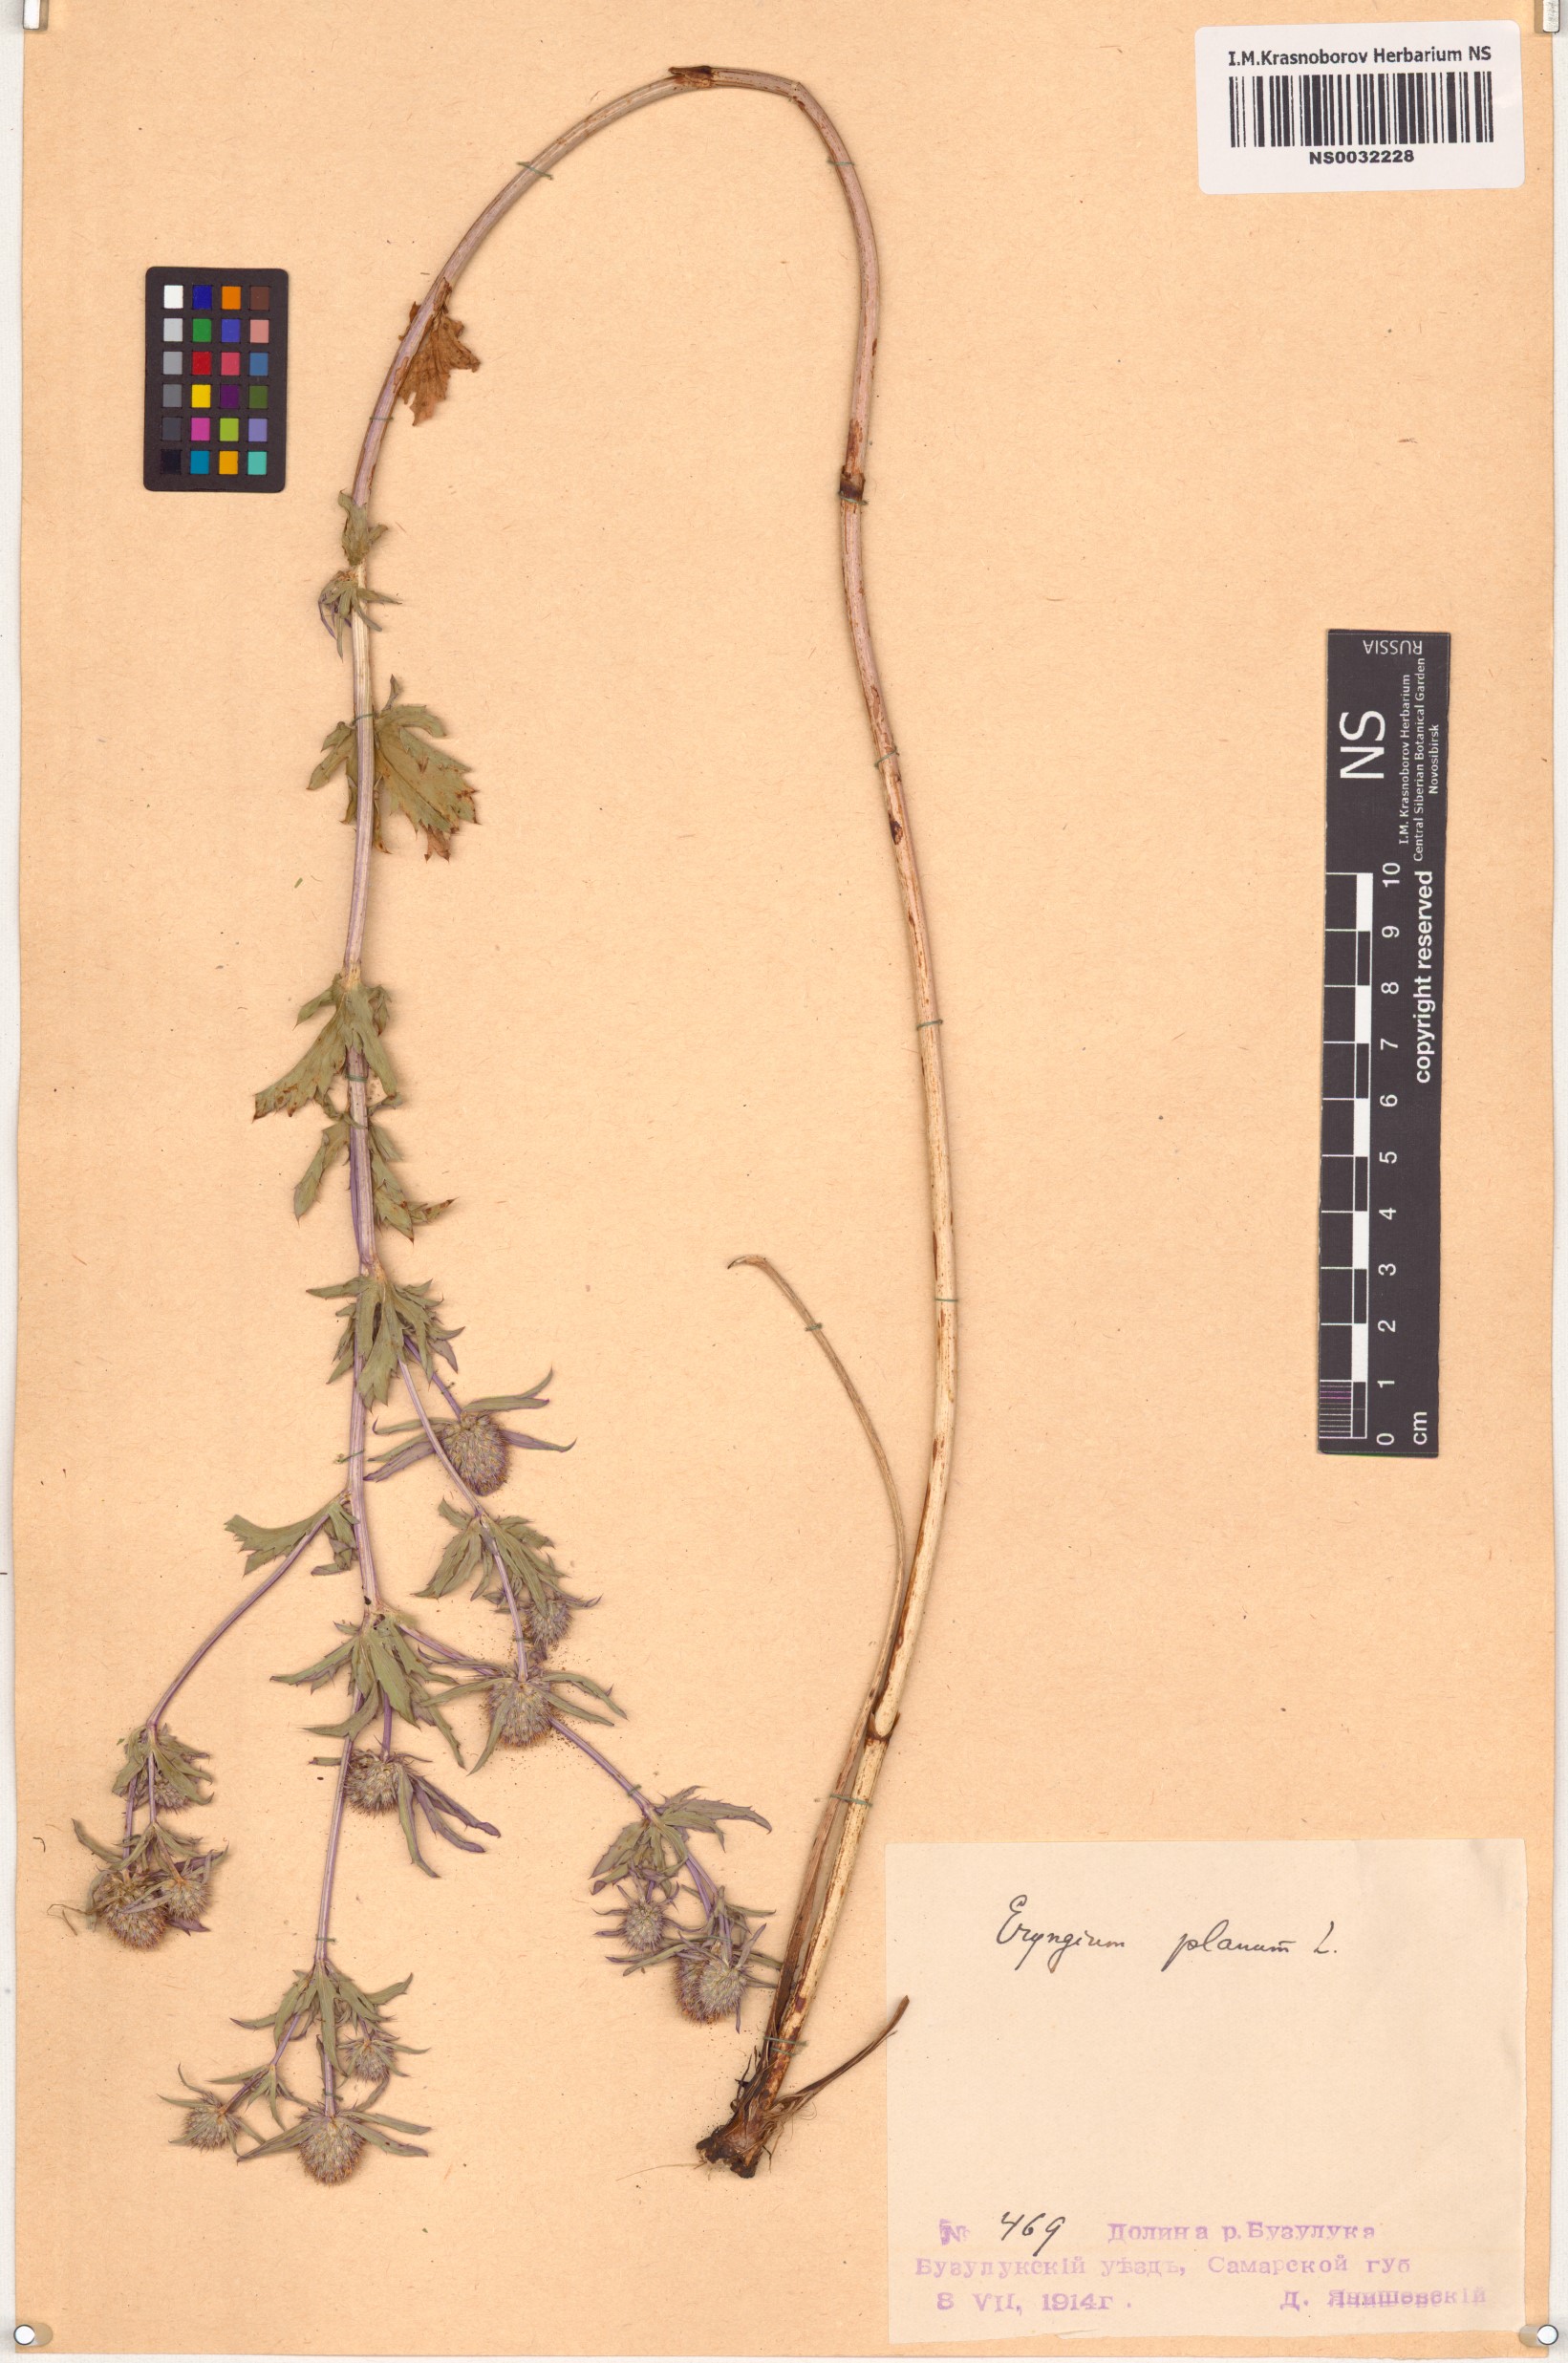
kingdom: Plantae
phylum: Tracheophyta
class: Magnoliopsida
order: Apiales
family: Apiaceae
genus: Eryngium
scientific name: Eryngium planum
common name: Blue eryngo
